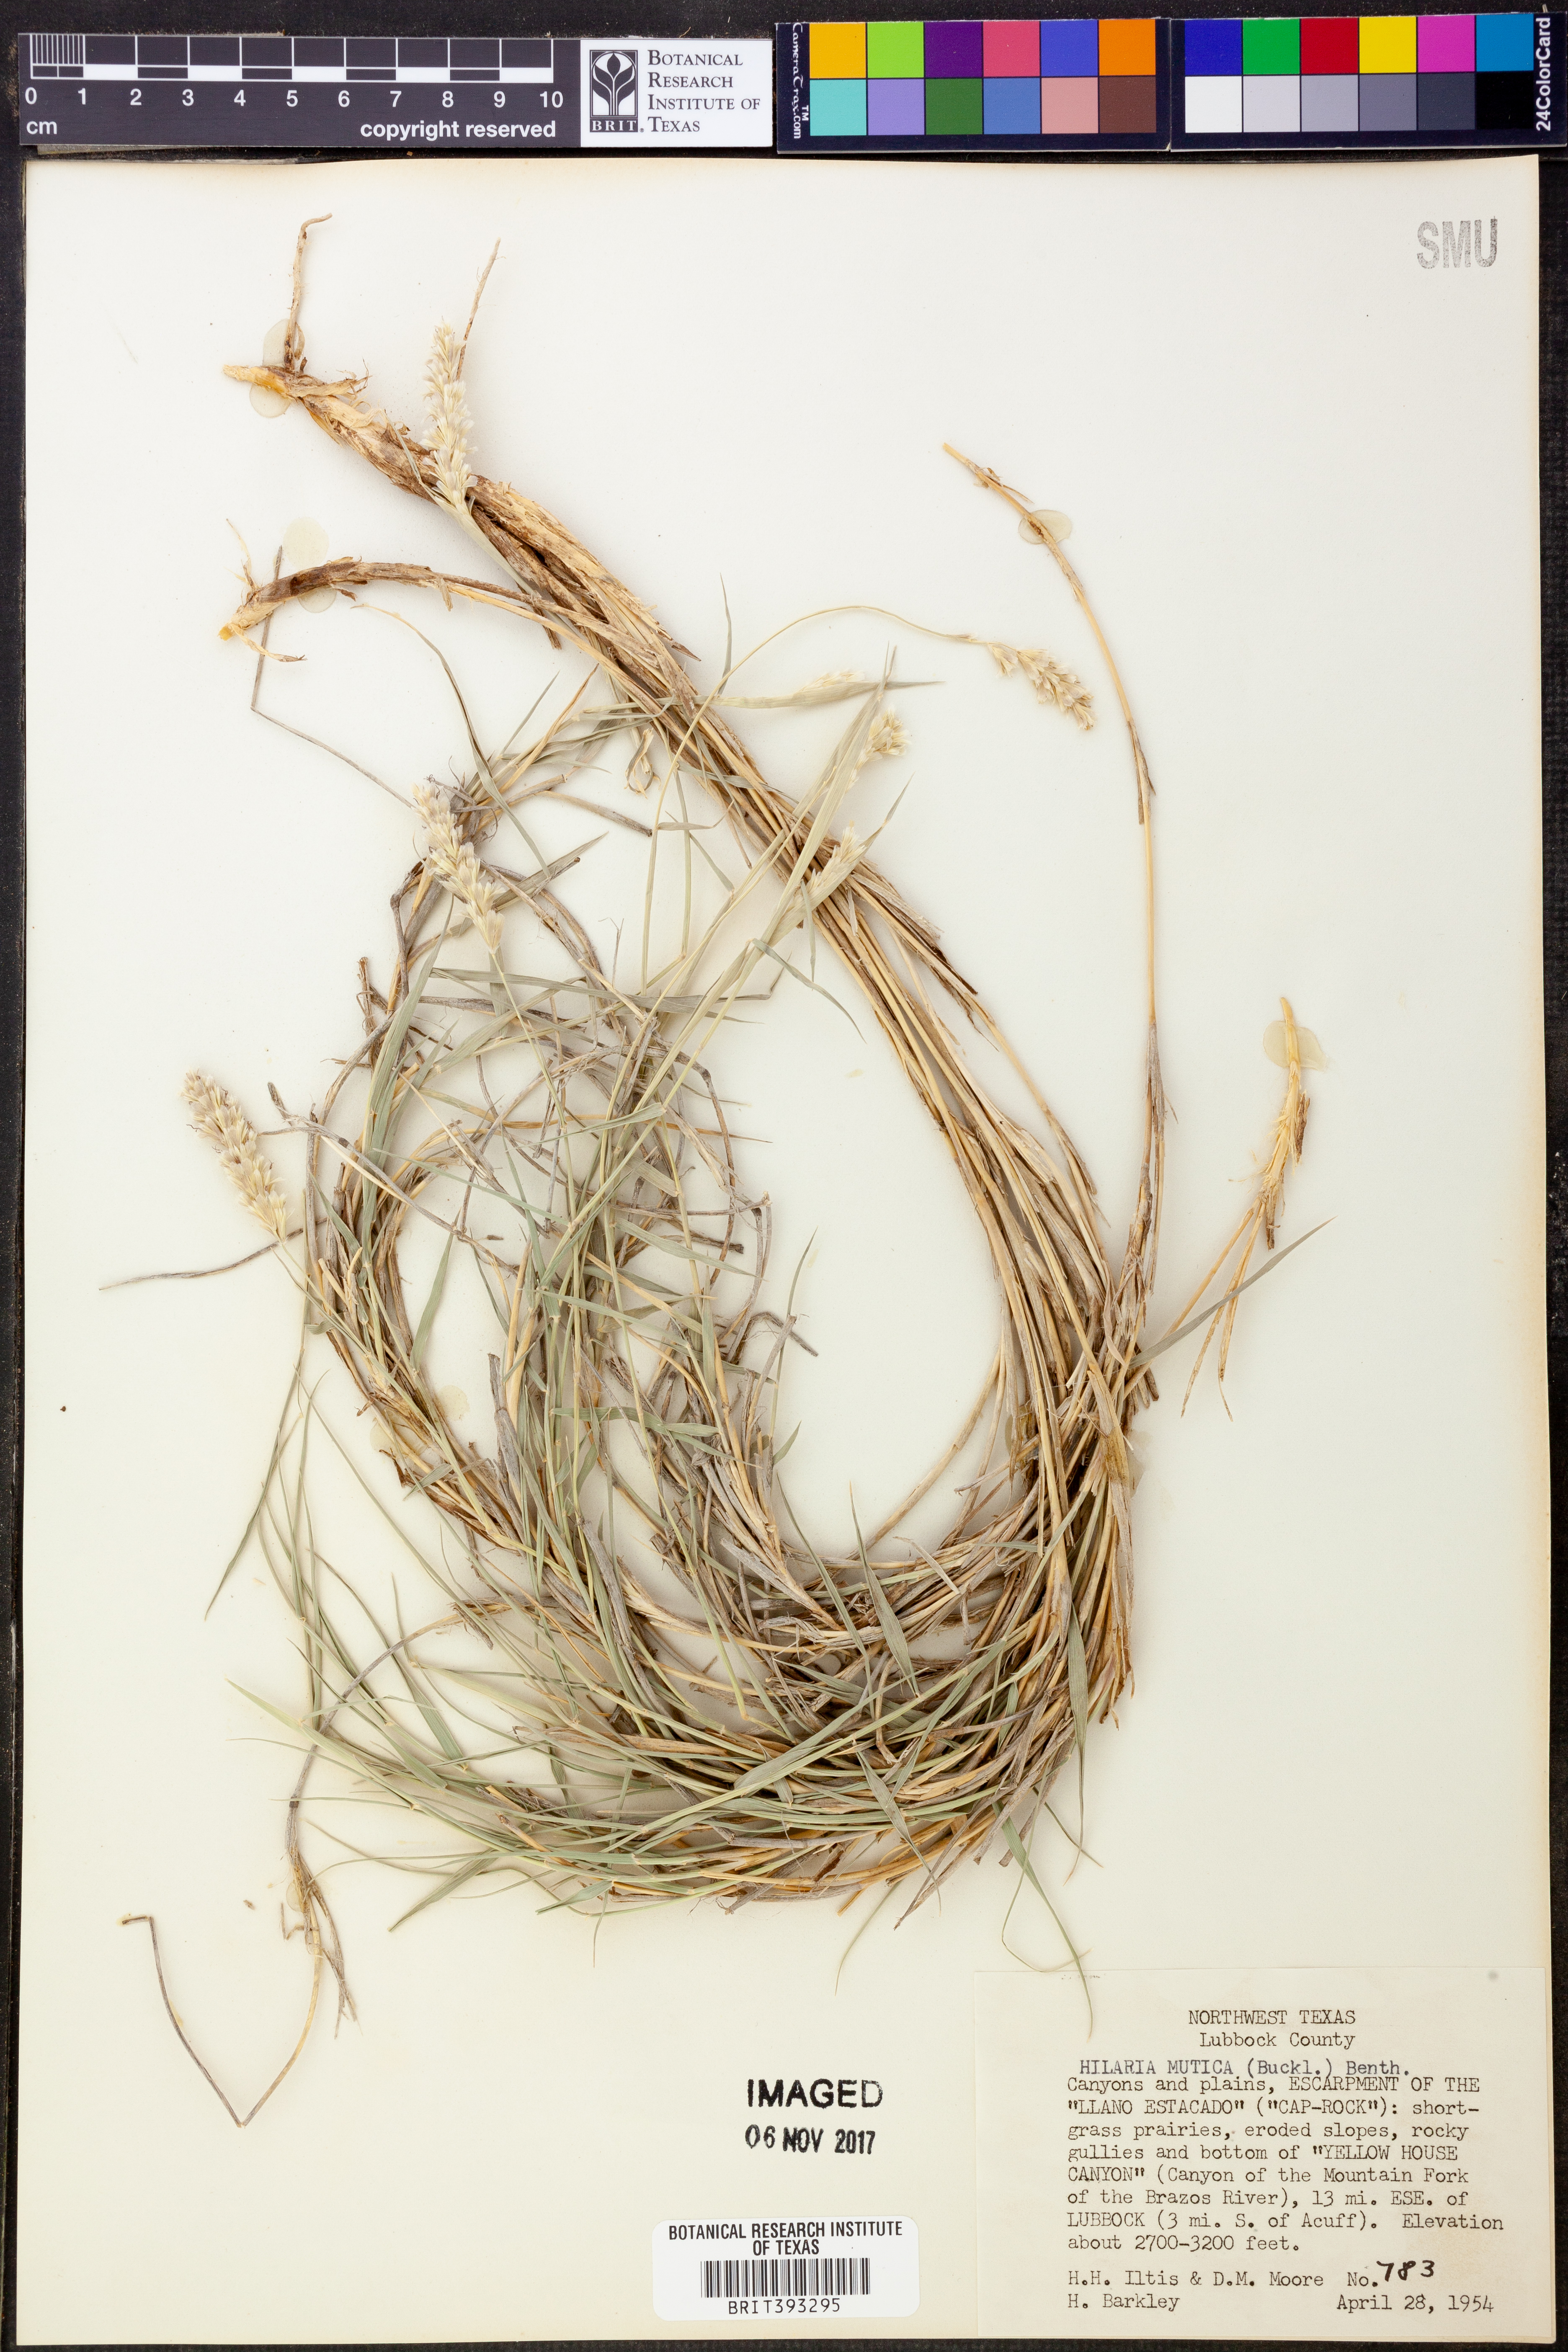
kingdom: Plantae
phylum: Tracheophyta
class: Liliopsida
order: Poales
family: Poaceae
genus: Hilaria
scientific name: Hilaria mutica
